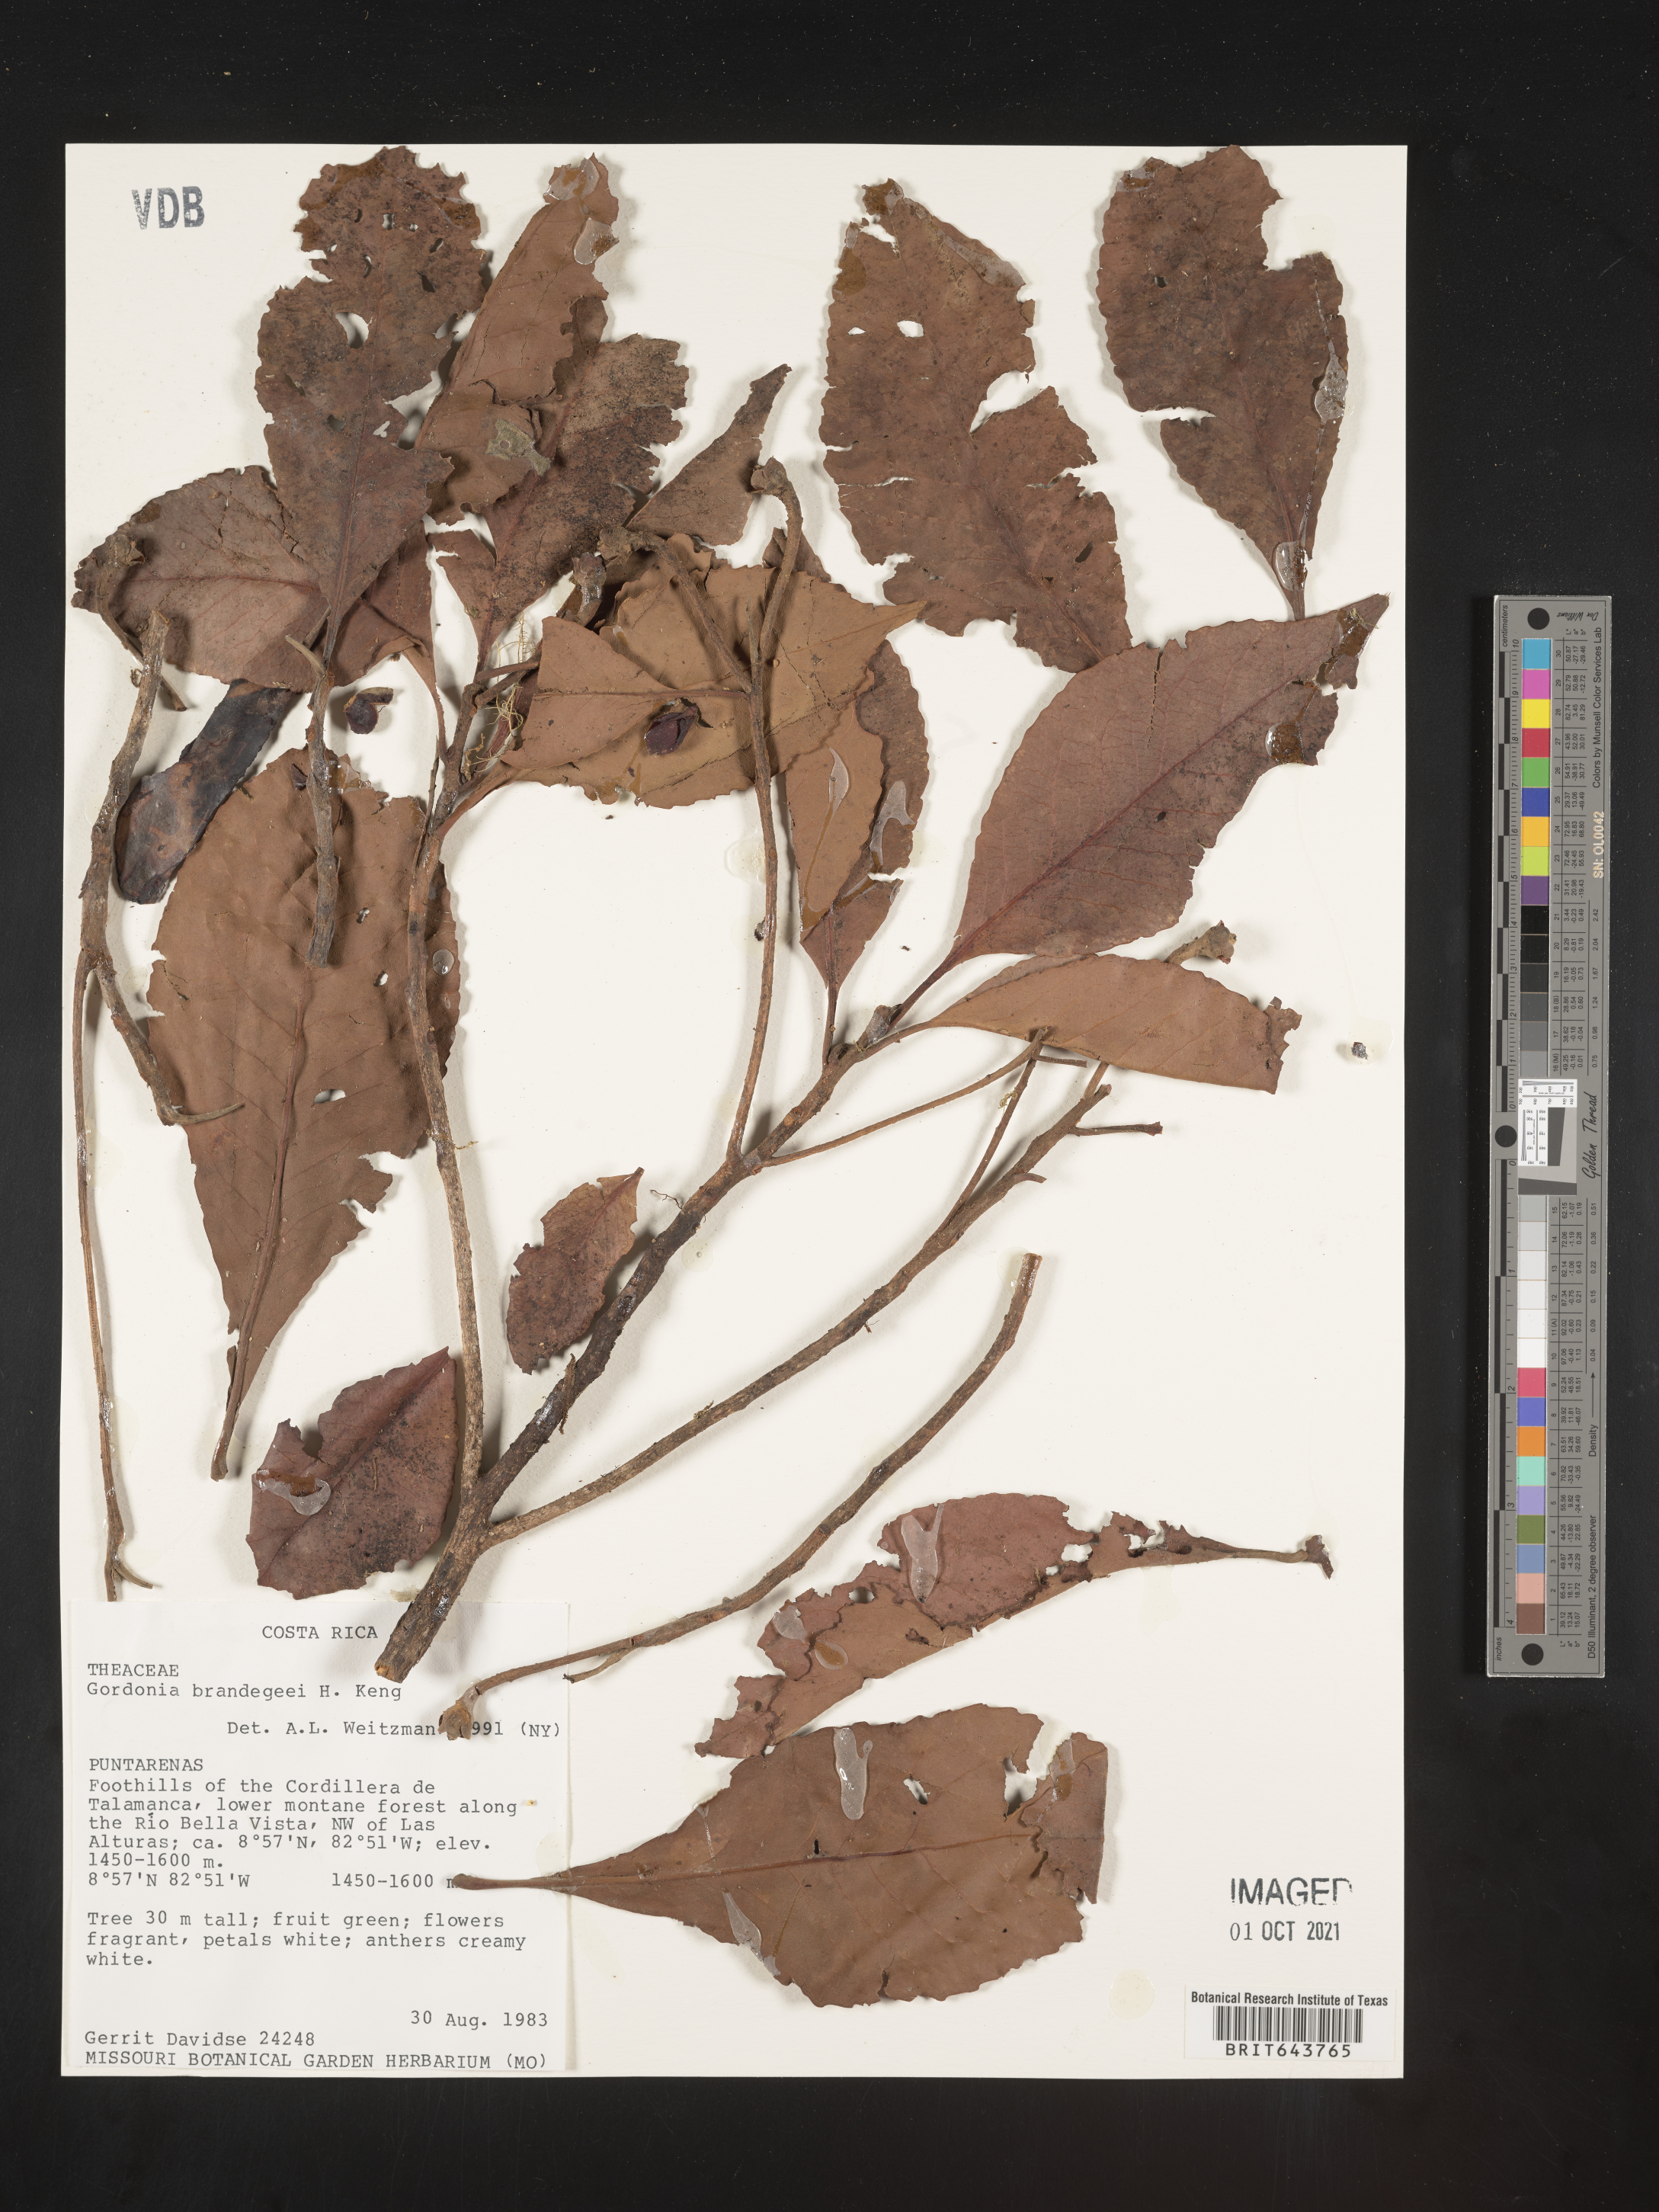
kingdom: Plantae
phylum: Tracheophyta
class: Magnoliopsida
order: Ericales
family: Theaceae
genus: Gordonia
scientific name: Gordonia
